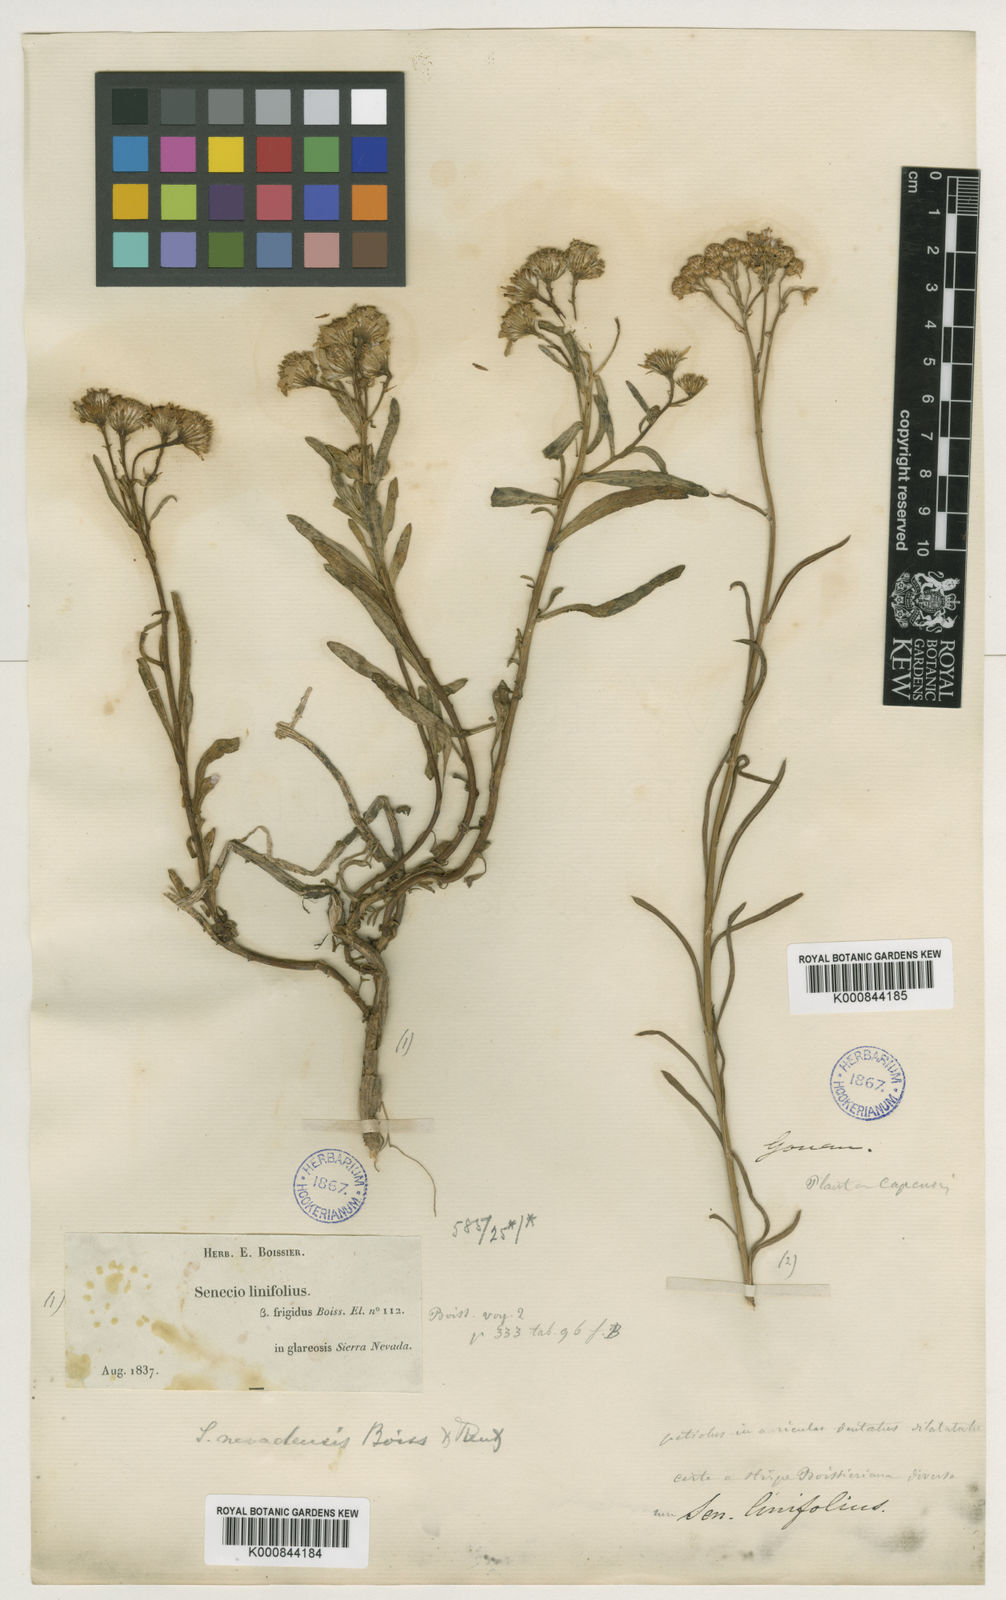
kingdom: Plantae
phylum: Tracheophyta
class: Magnoliopsida
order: Asterales
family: Asteraceae
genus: Senecio
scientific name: Senecio nevadensis
